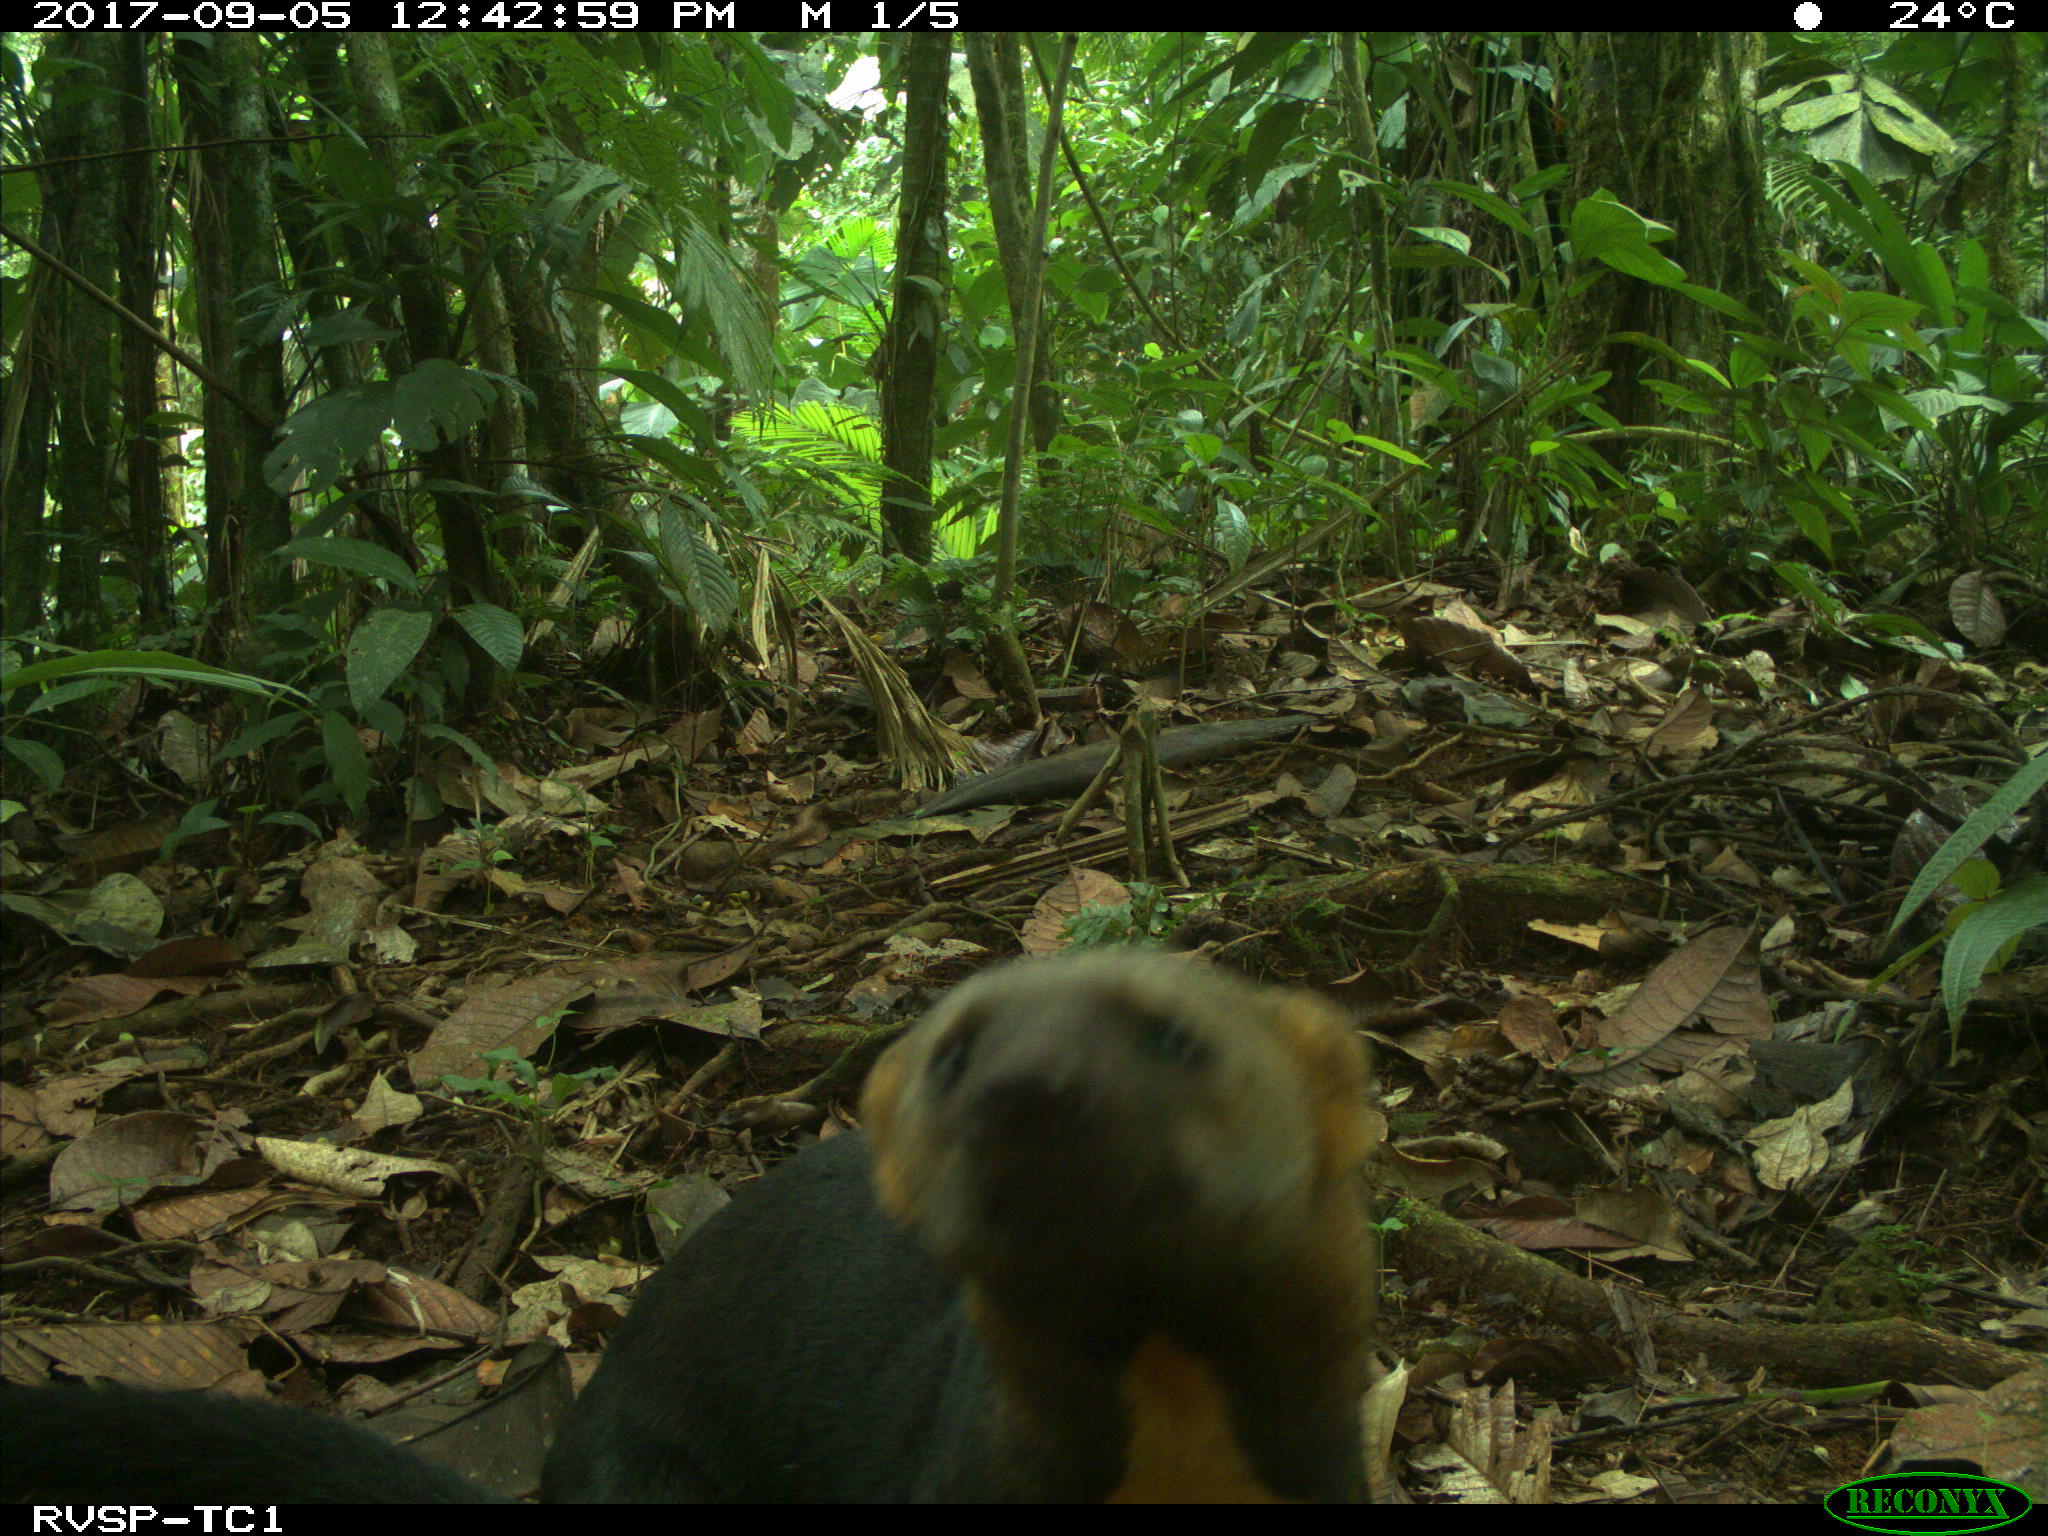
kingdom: Animalia
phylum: Chordata
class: Mammalia
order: Carnivora
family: Mustelidae
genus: Eira
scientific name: Eira barbara
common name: Tayra
